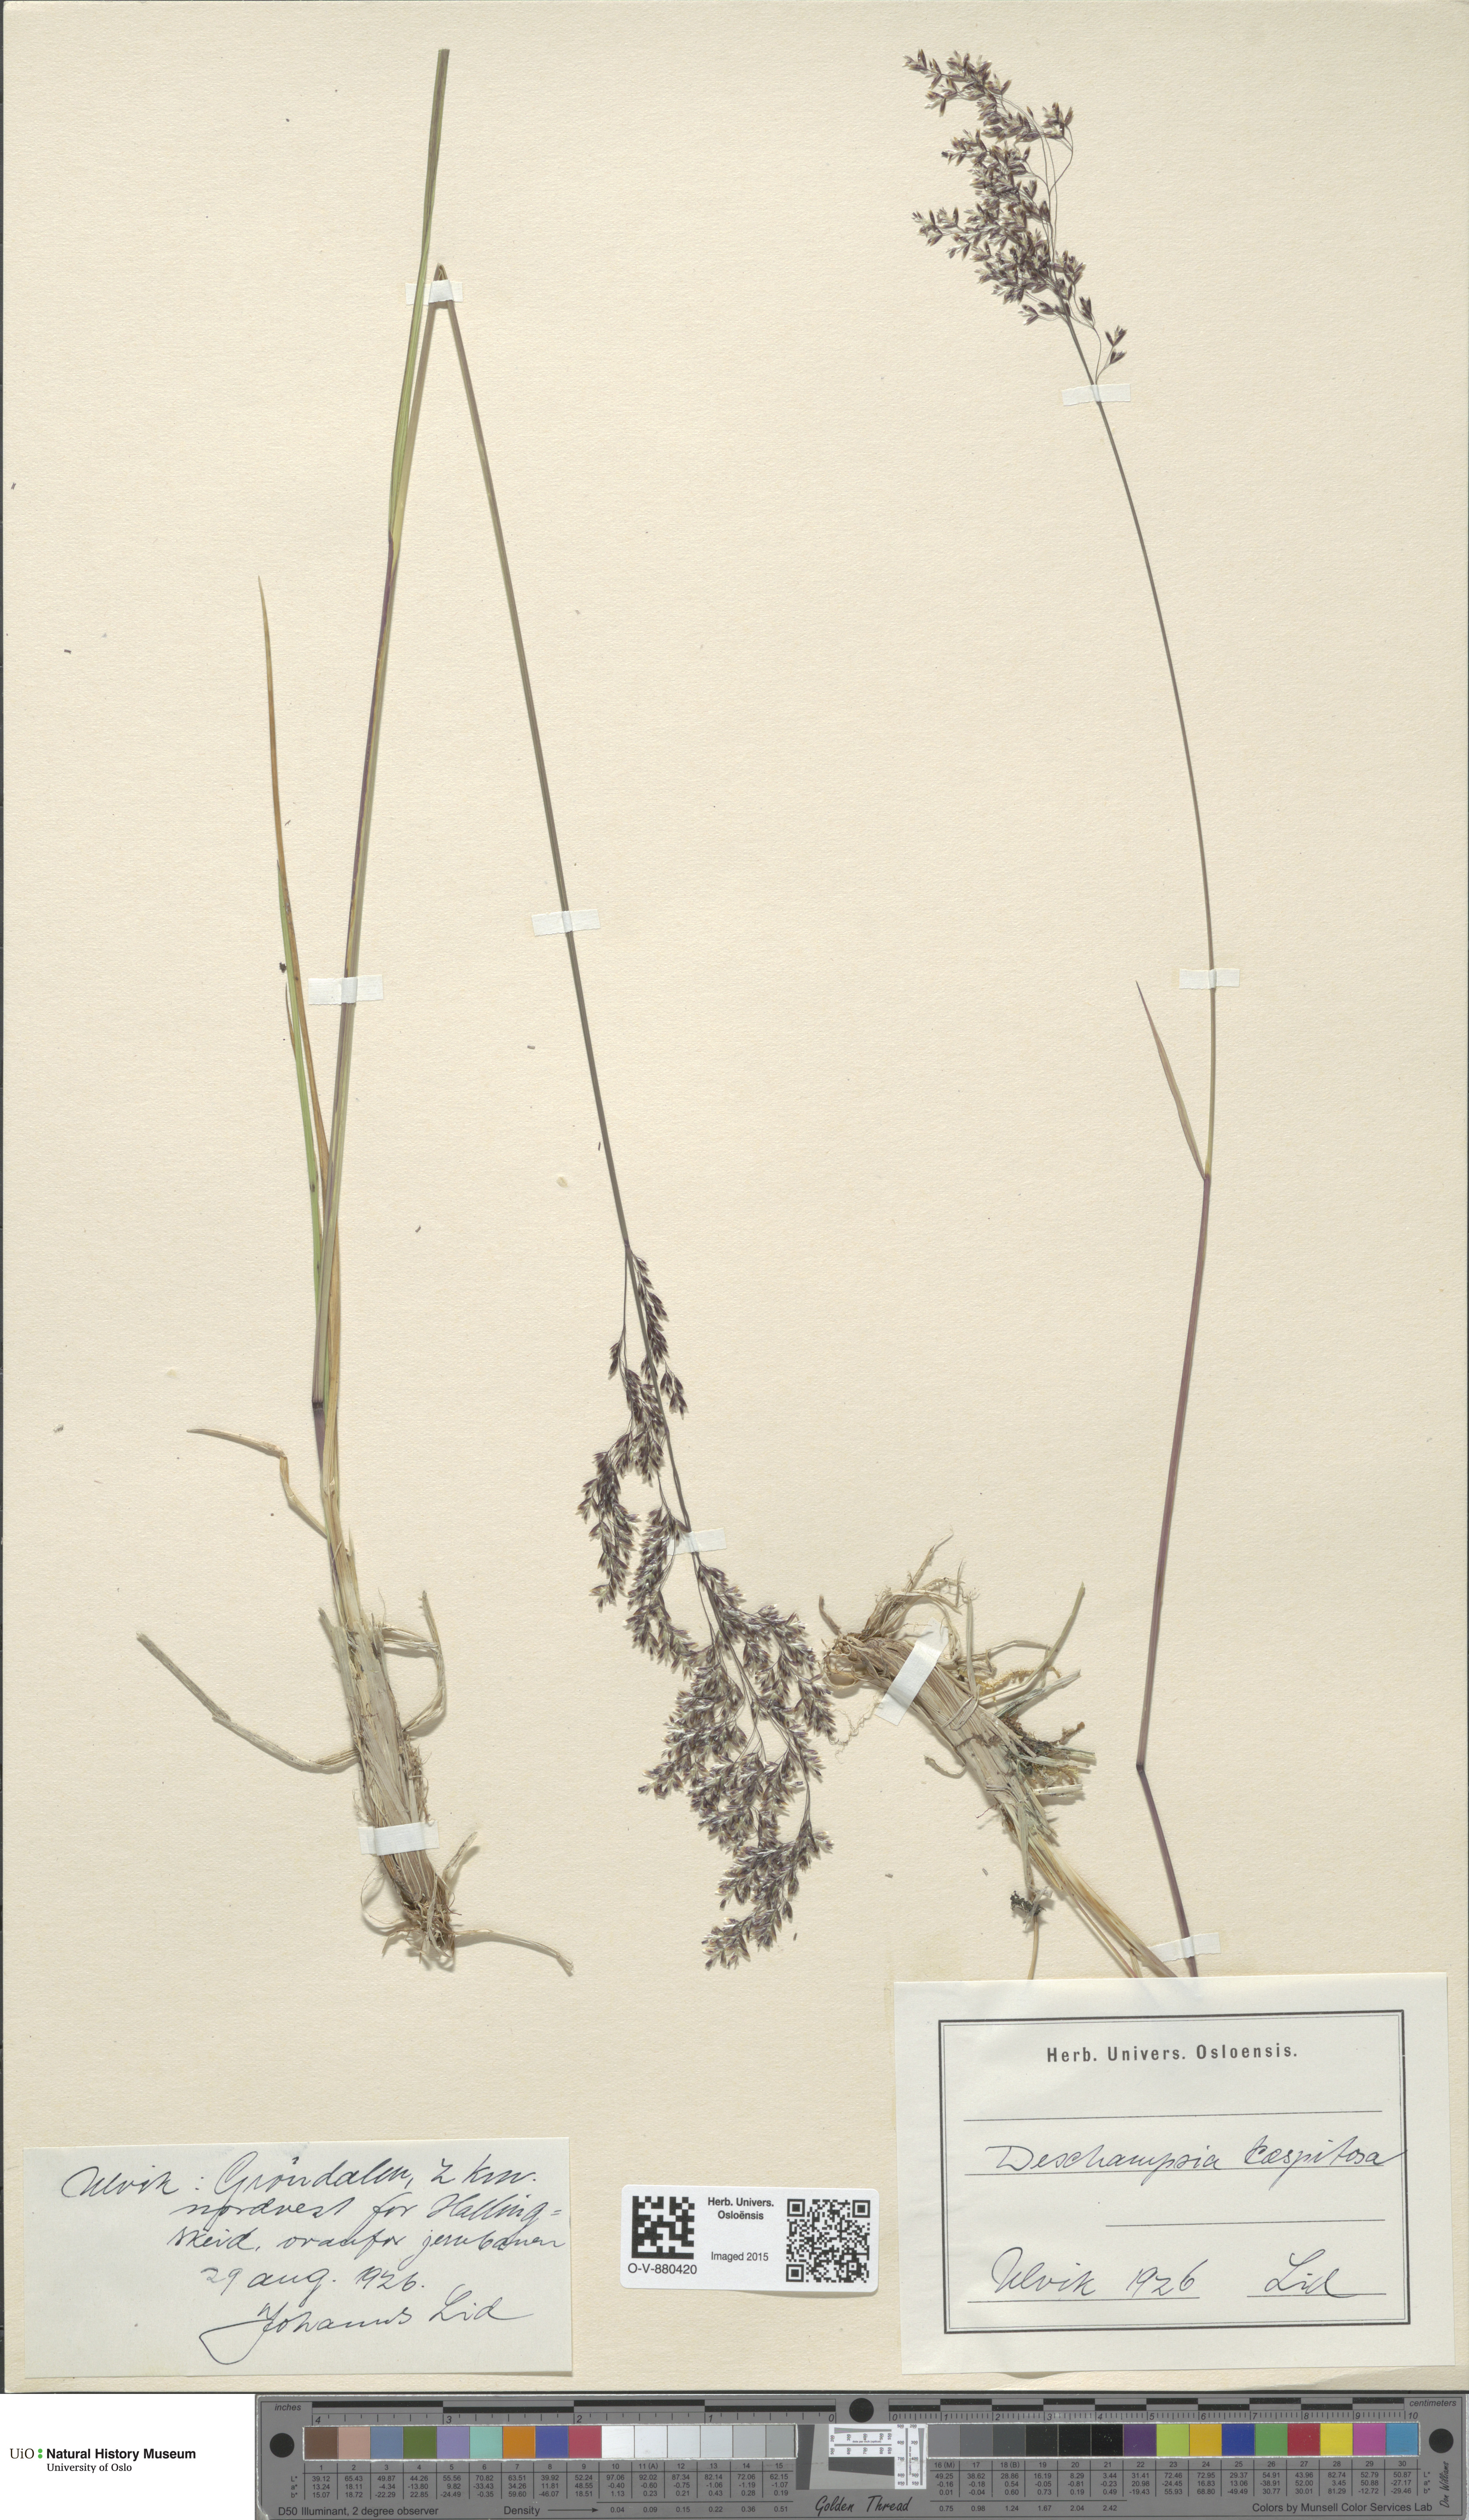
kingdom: Plantae
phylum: Tracheophyta
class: Liliopsida
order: Poales
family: Poaceae
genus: Deschampsia
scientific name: Deschampsia cespitosa
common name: Tufted hair-grass
